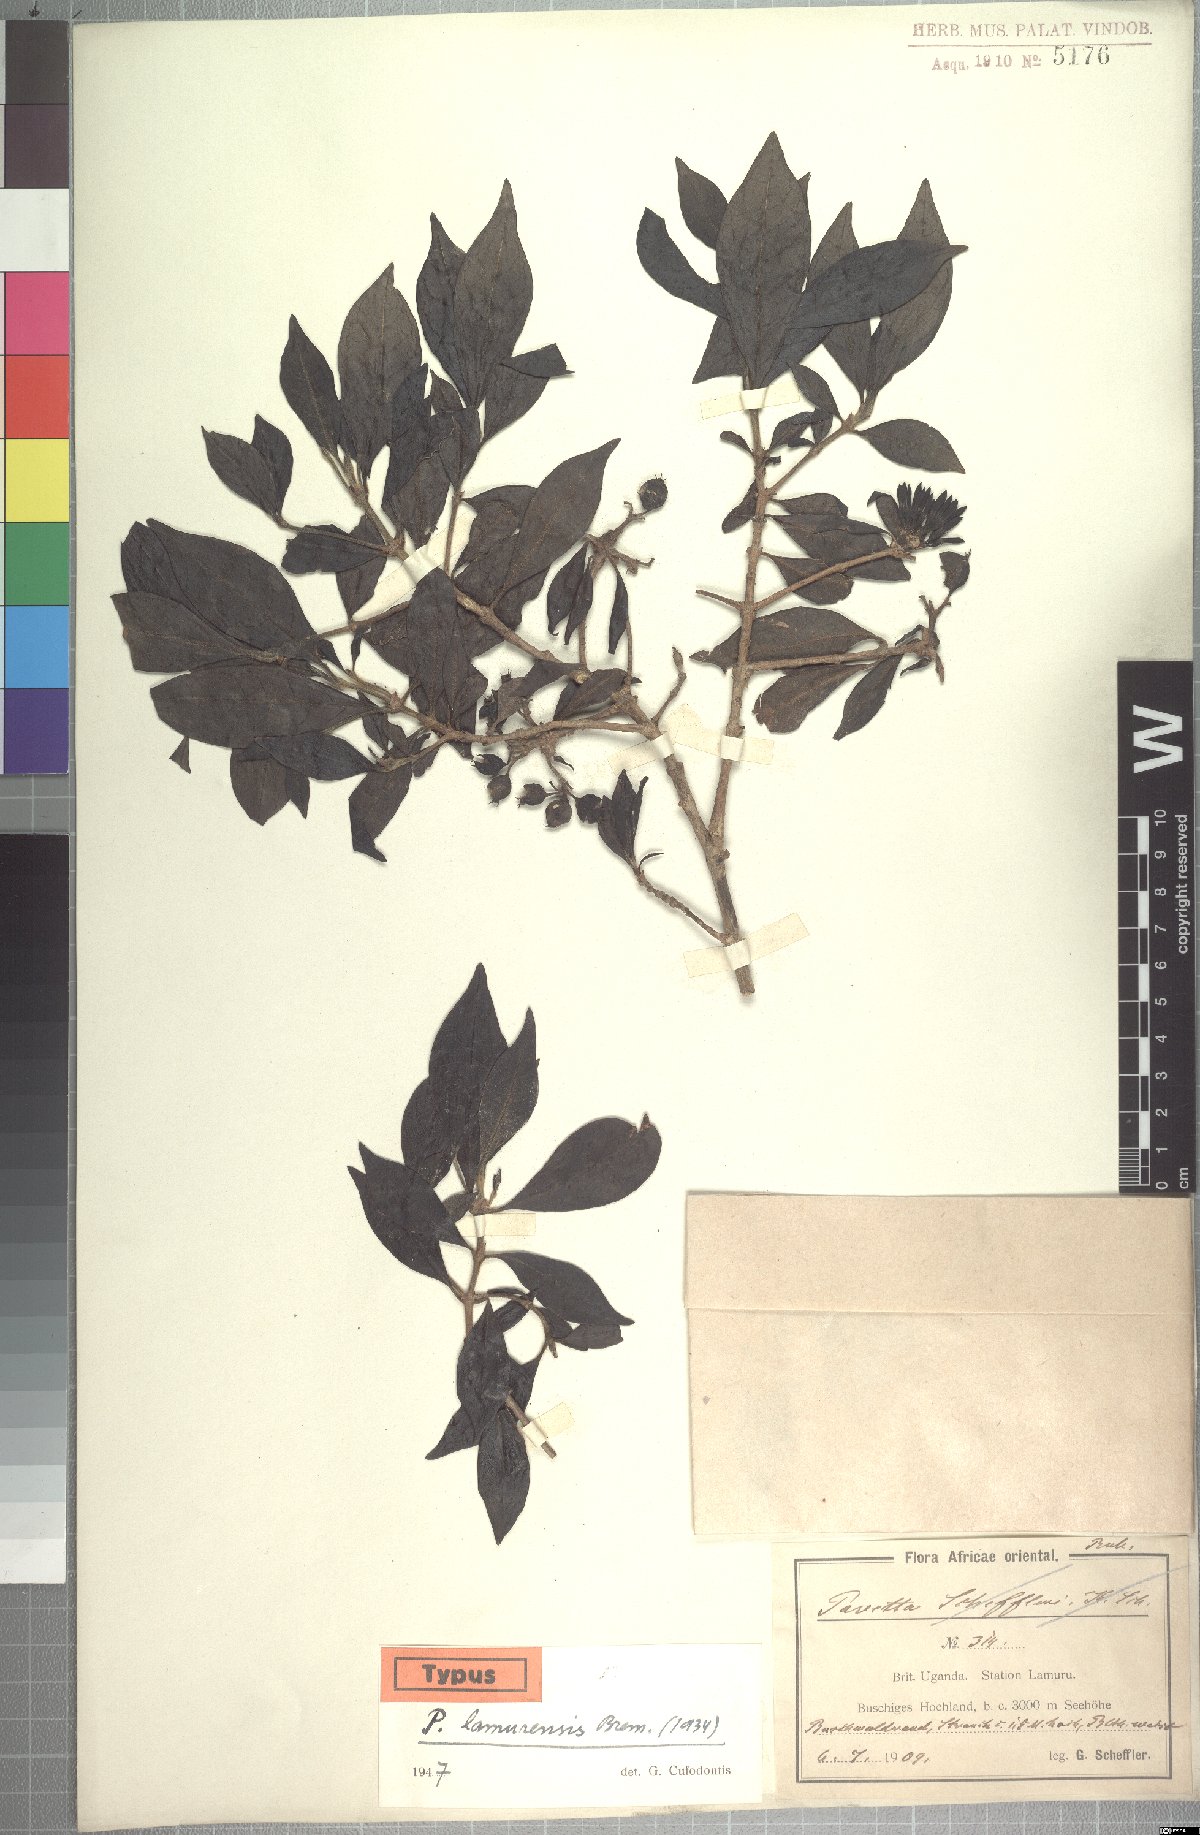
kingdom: Plantae
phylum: Tracheophyta
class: Magnoliopsida
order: Gentianales
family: Rubiaceae
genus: Pavetta
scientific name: Pavetta abyssinica
